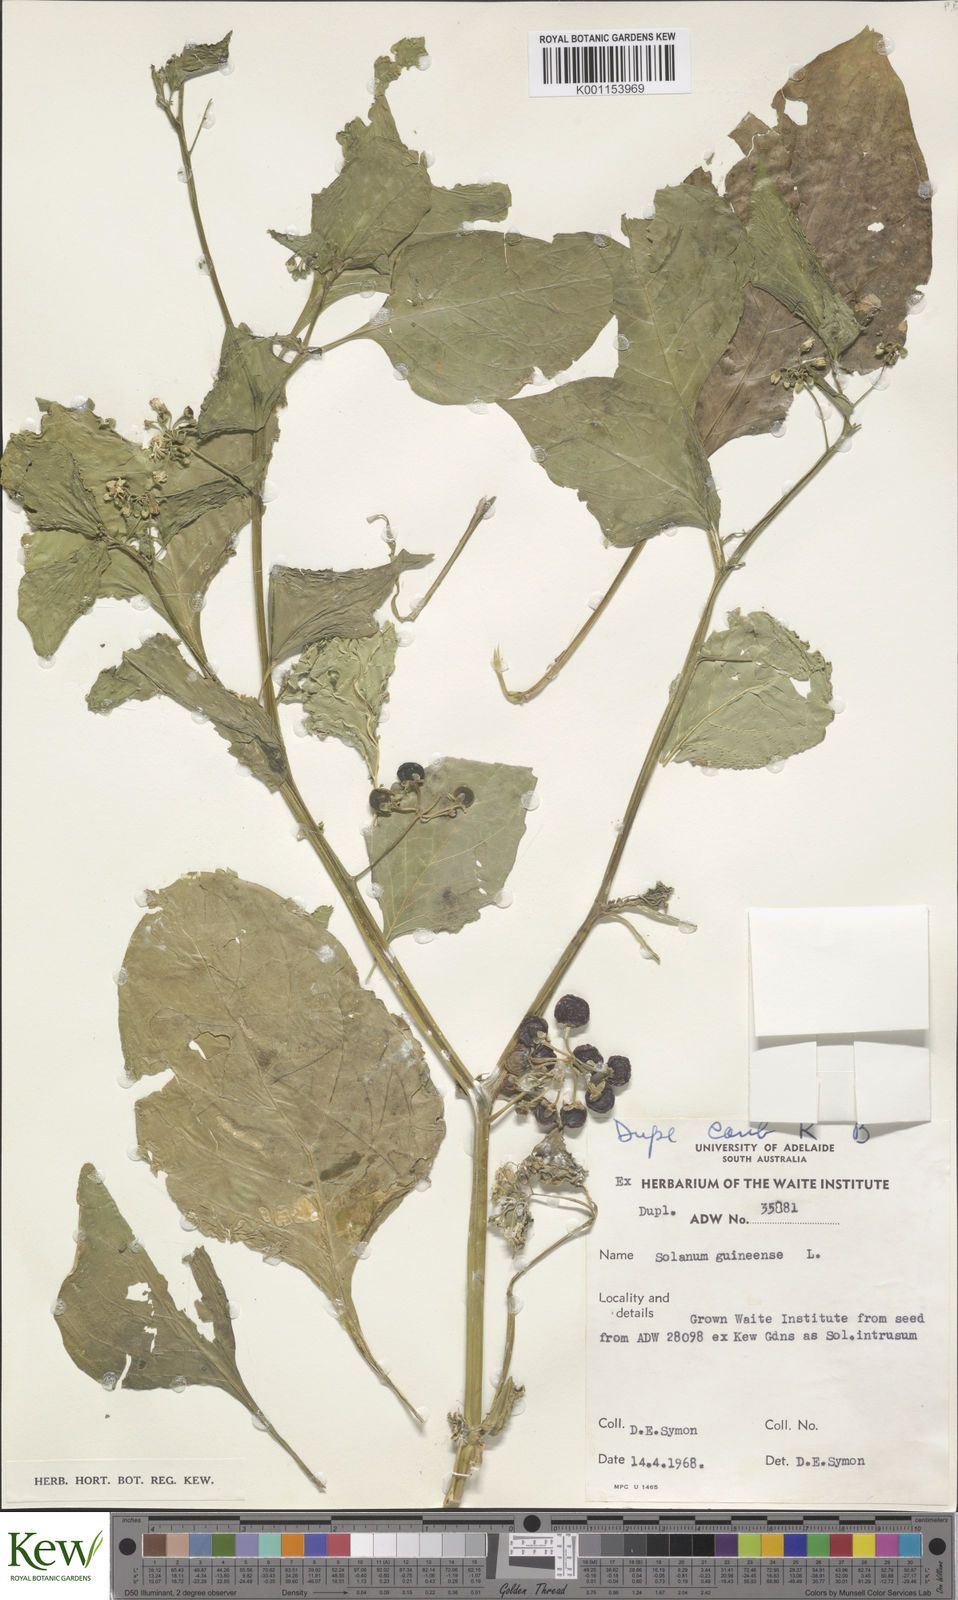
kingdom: Plantae
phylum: Tracheophyta
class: Magnoliopsida
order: Solanales
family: Solanaceae
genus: Solanum
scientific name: Solanum scabrum
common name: Garden-huckleberry
